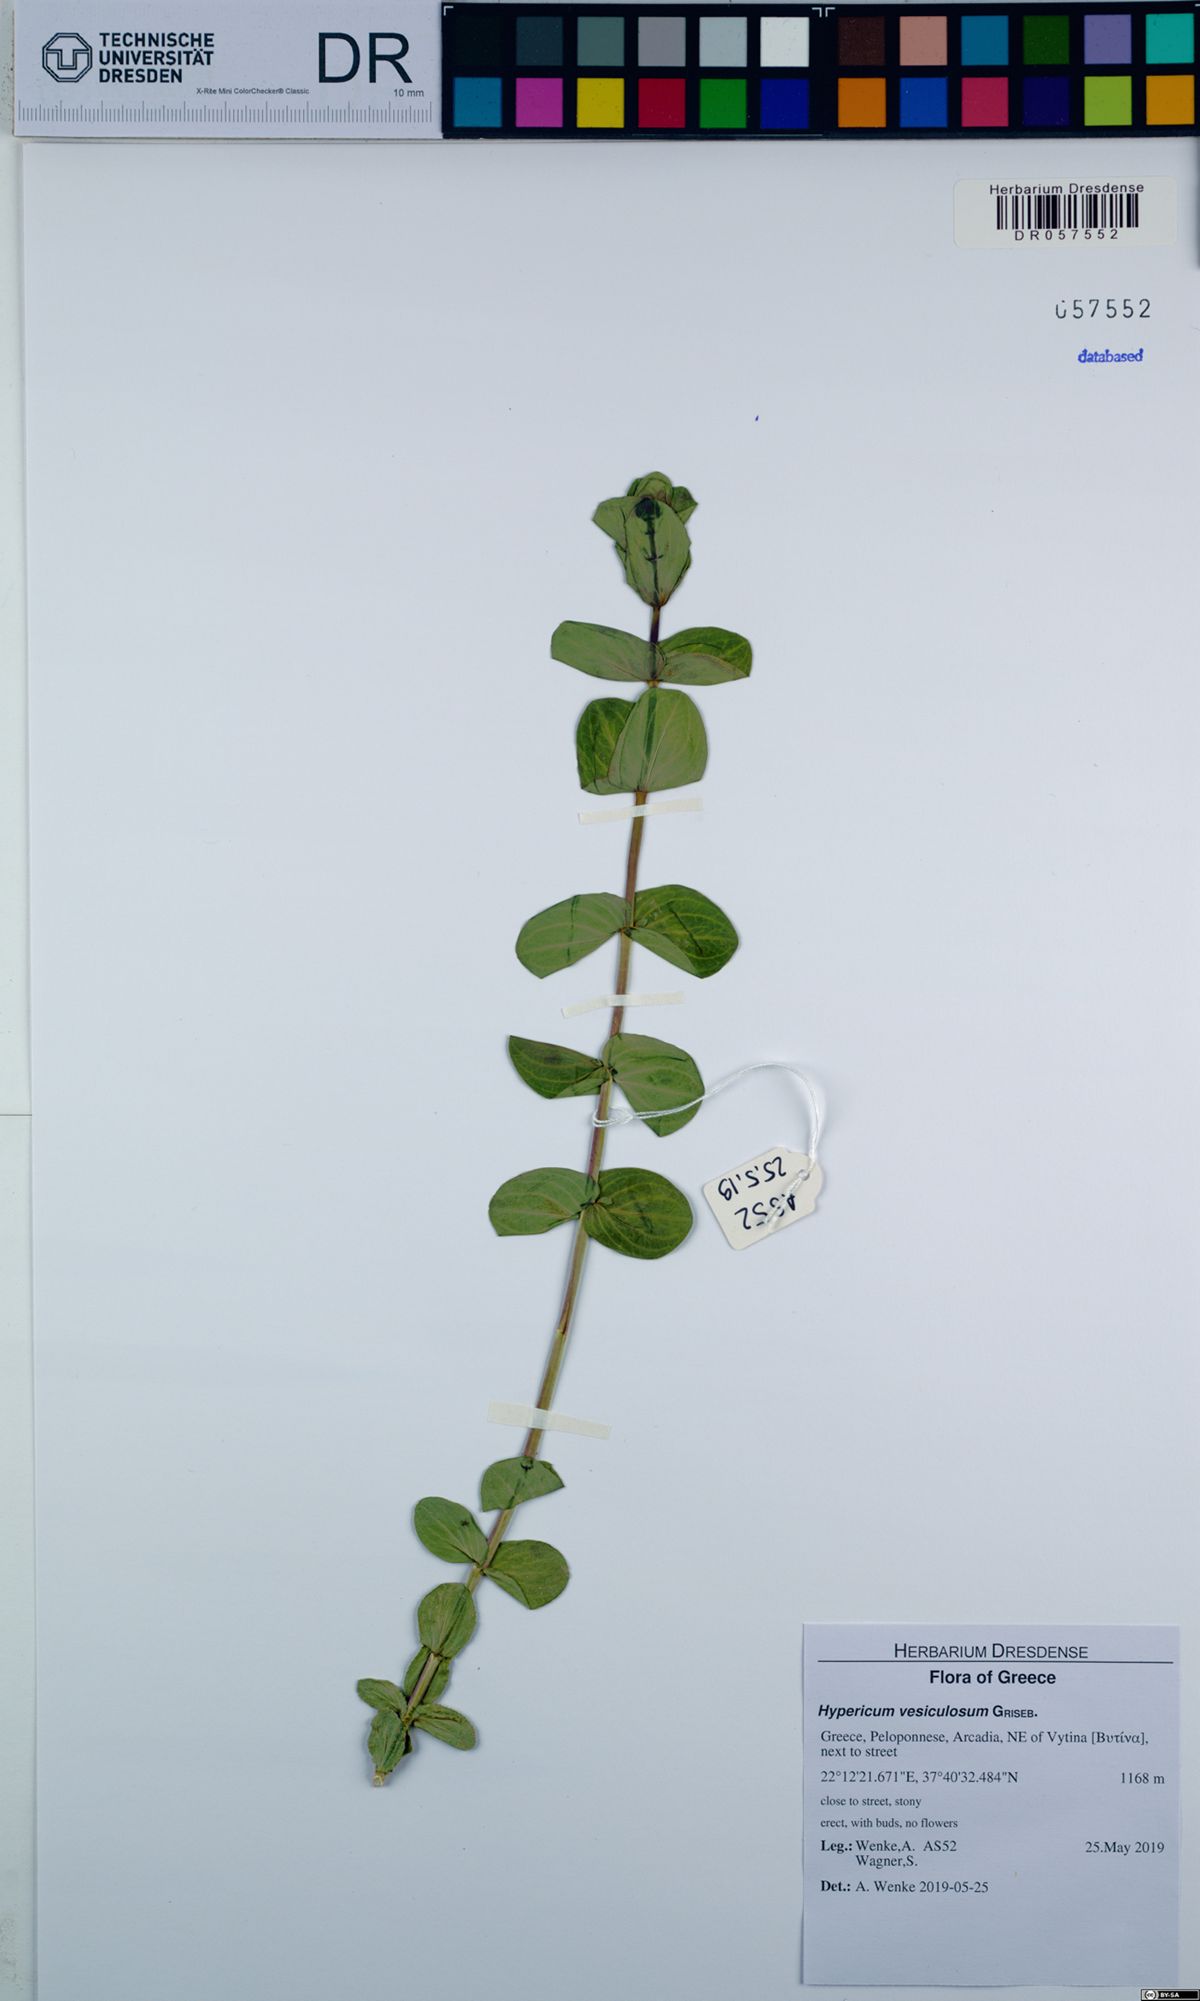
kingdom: Plantae
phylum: Tracheophyta
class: Magnoliopsida
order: Malpighiales
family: Hypericaceae
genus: Hypericum
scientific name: Hypericum vesiculosum
